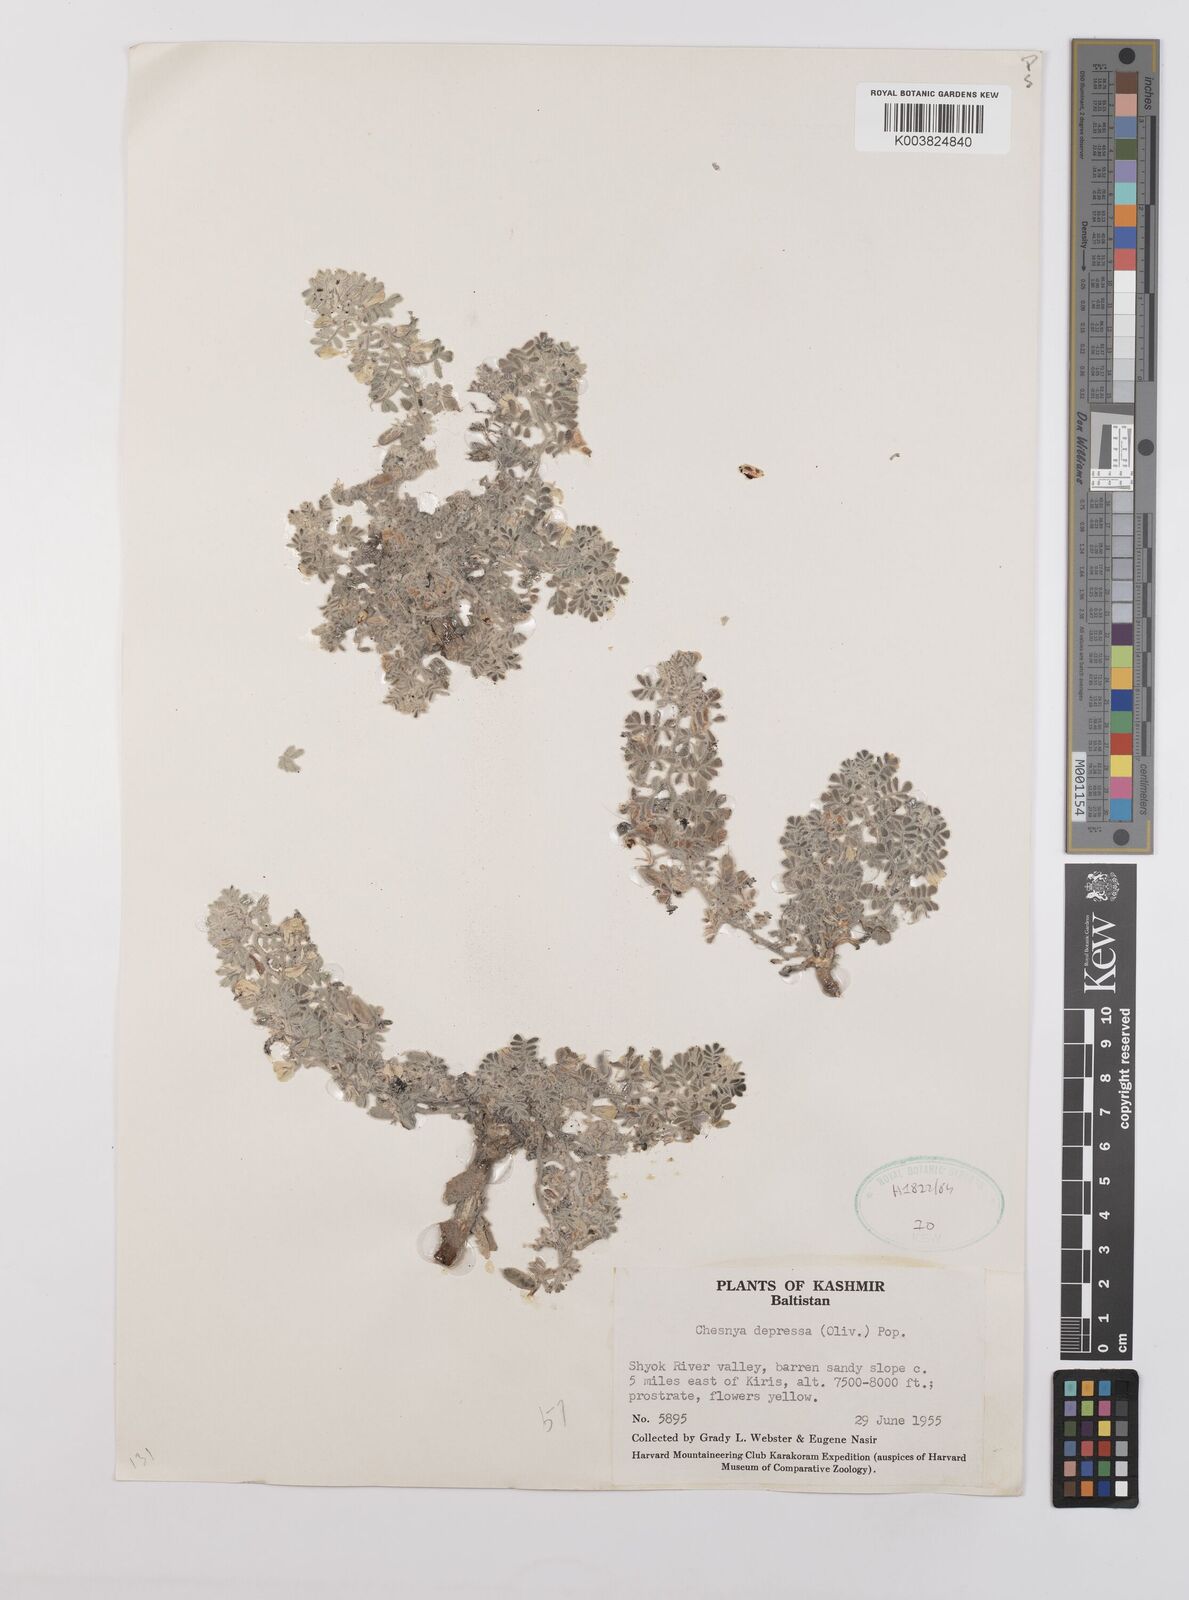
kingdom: Plantae
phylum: Tracheophyta
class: Magnoliopsida
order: Fabales
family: Fabaceae
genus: Chesneya
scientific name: Chesneya depressa
